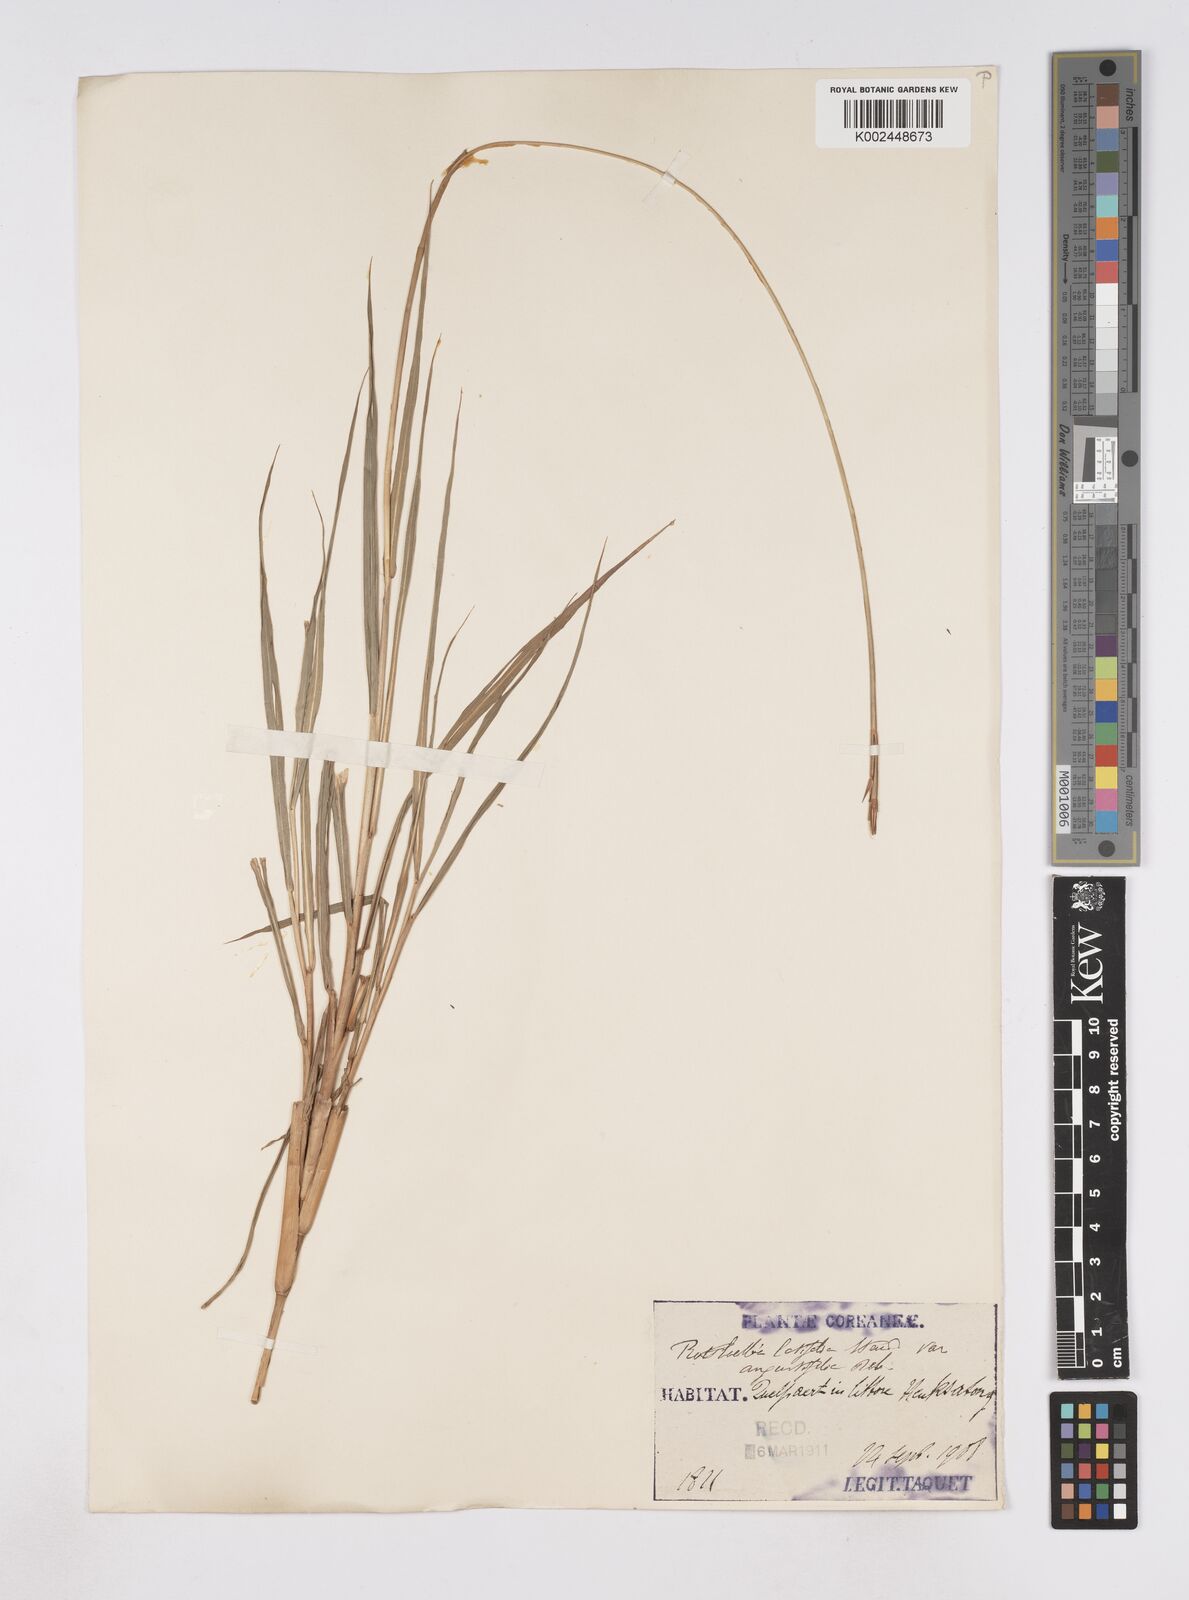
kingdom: Plantae
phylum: Tracheophyta
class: Liliopsida
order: Poales
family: Poaceae
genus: Phacelurus
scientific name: Phacelurus latifolius
